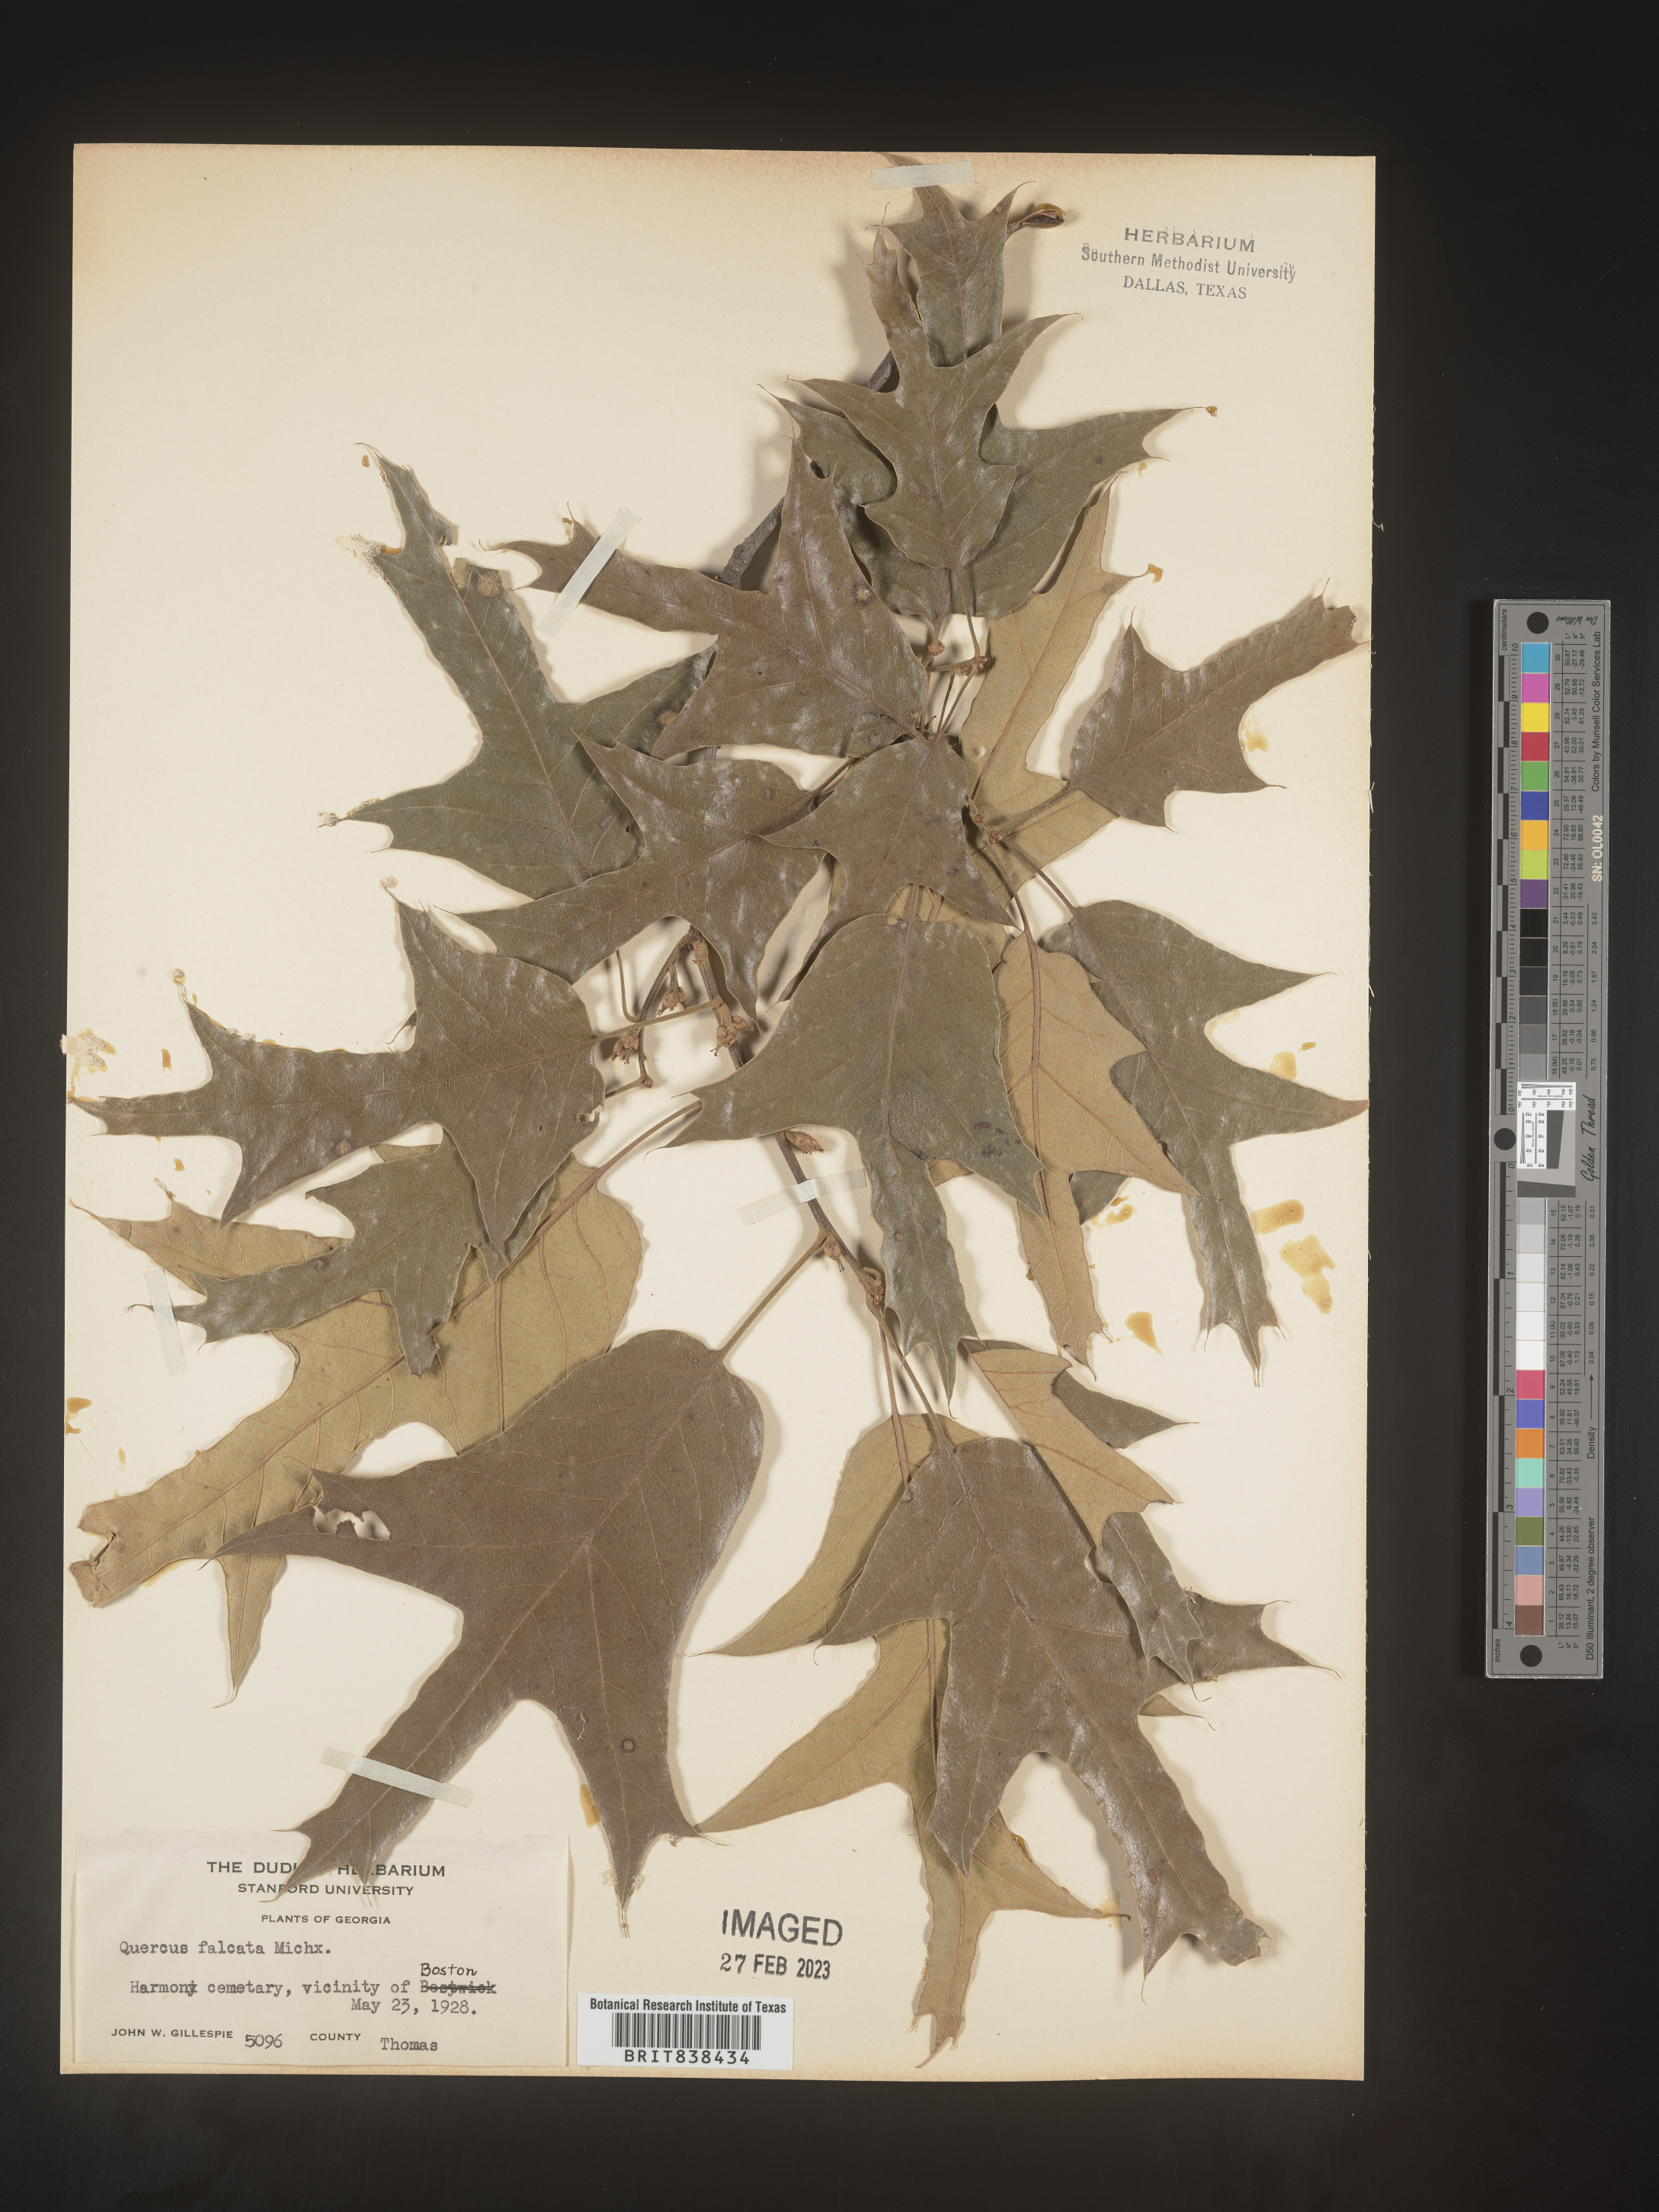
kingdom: Plantae
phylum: Tracheophyta
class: Magnoliopsida
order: Fagales
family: Fagaceae
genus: Quercus
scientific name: Quercus falcata
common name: Southern red oak
